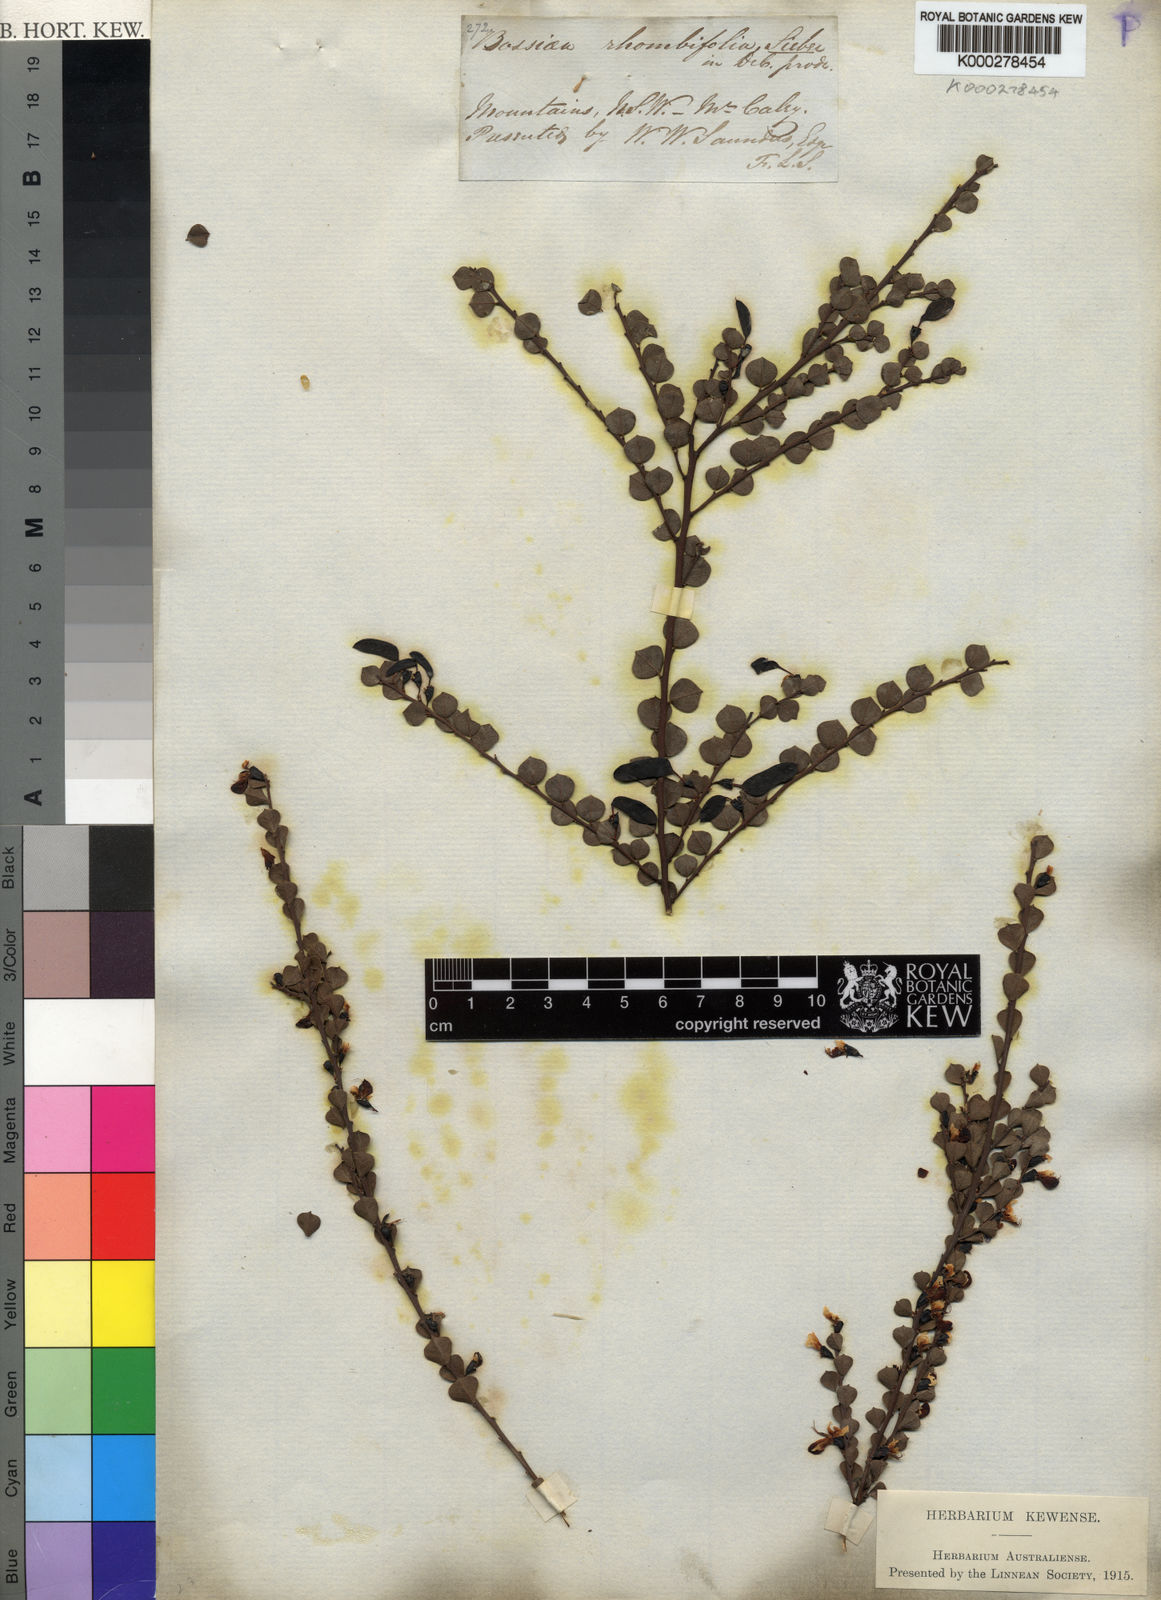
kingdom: Plantae
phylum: Tracheophyta
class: Magnoliopsida
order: Fabales
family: Fabaceae
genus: Bossiaea
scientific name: Bossiaea rhombifolia
